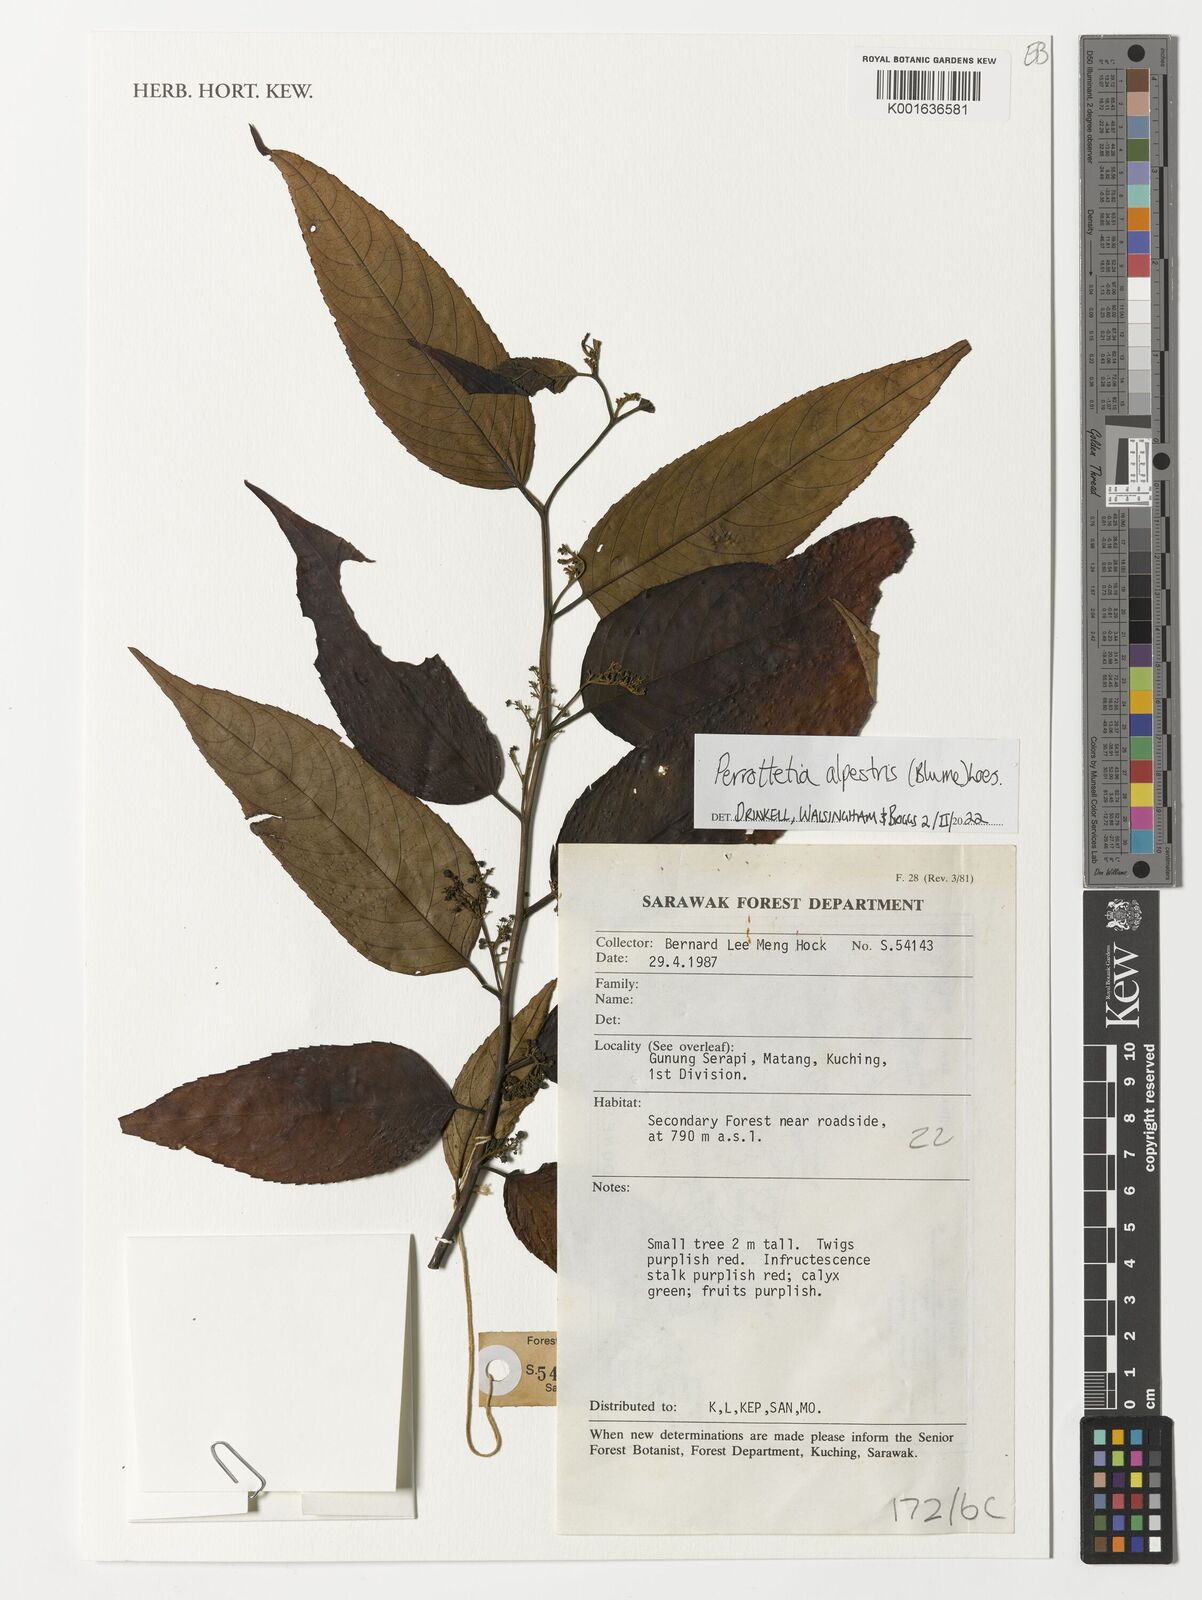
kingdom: Plantae
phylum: Tracheophyta
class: Magnoliopsida
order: Huerteales
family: Dipentodontaceae
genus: Perrottetia
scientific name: Perrottetia alpestris
